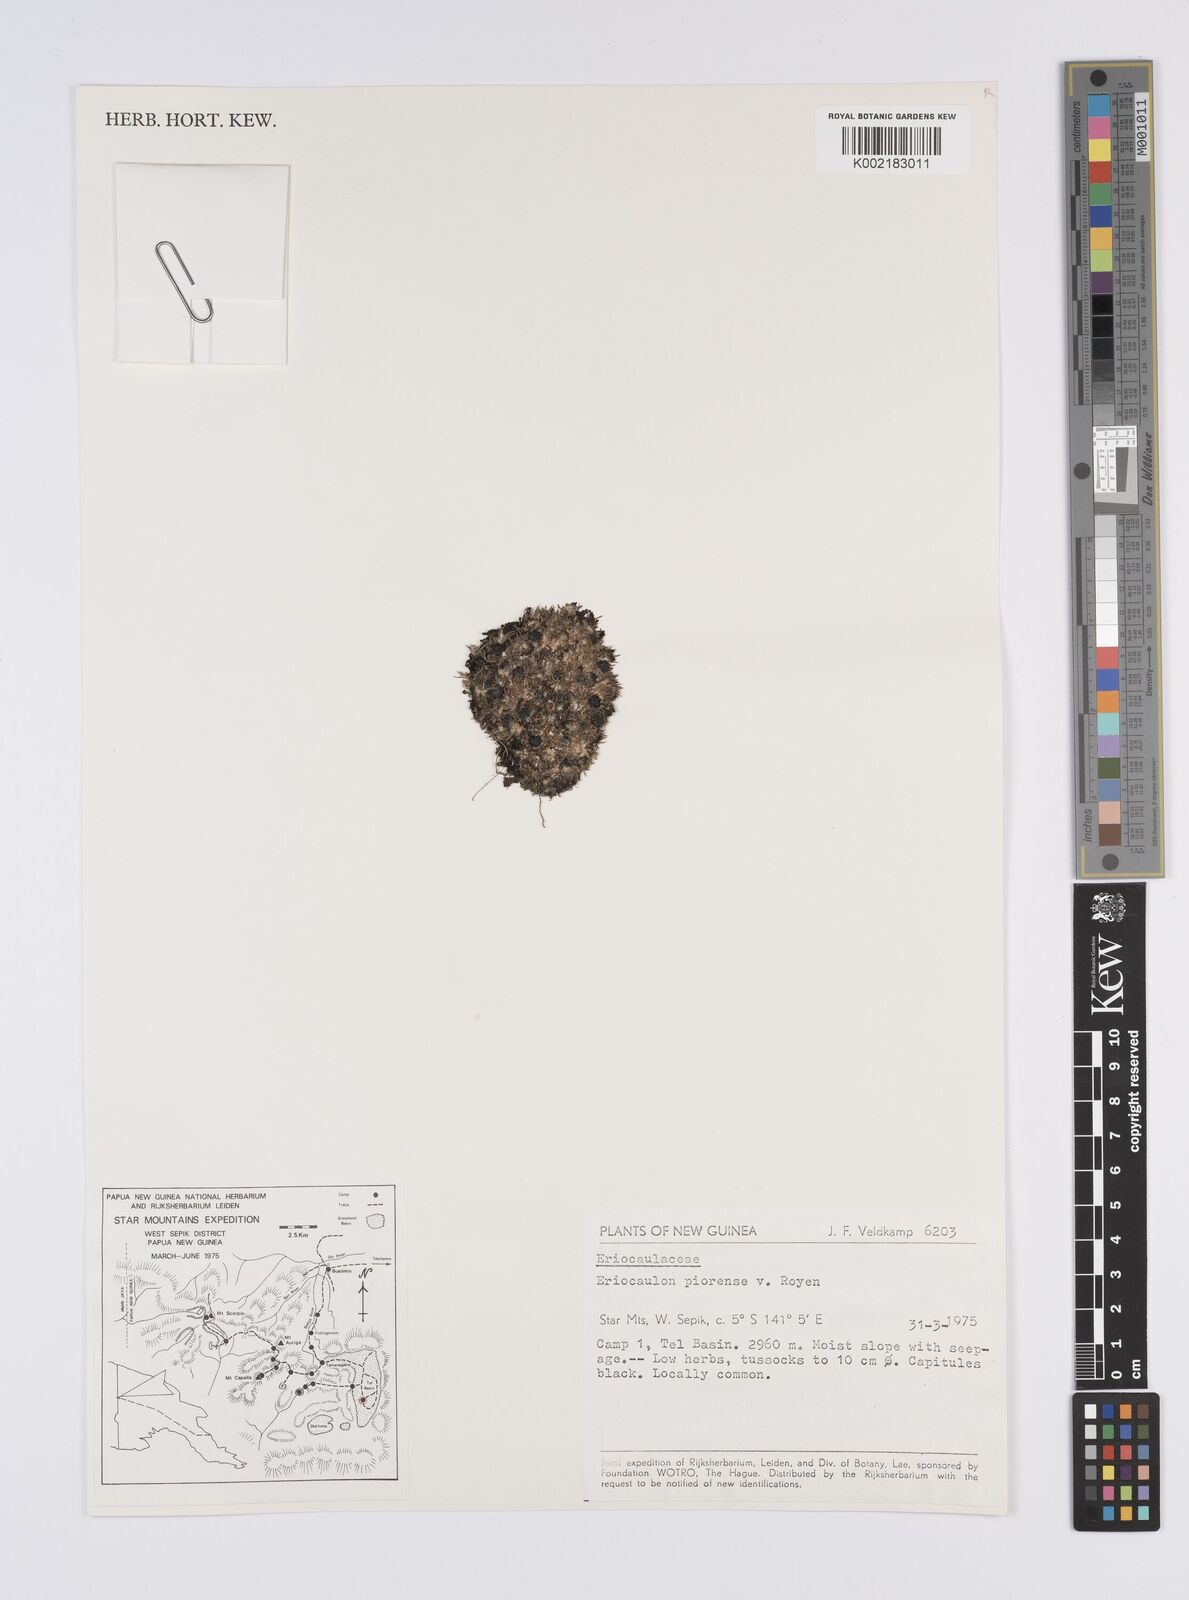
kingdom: Plantae
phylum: Tracheophyta
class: Liliopsida
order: Poales
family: Eriocaulaceae
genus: Eriocaulon
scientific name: Eriocaulon
